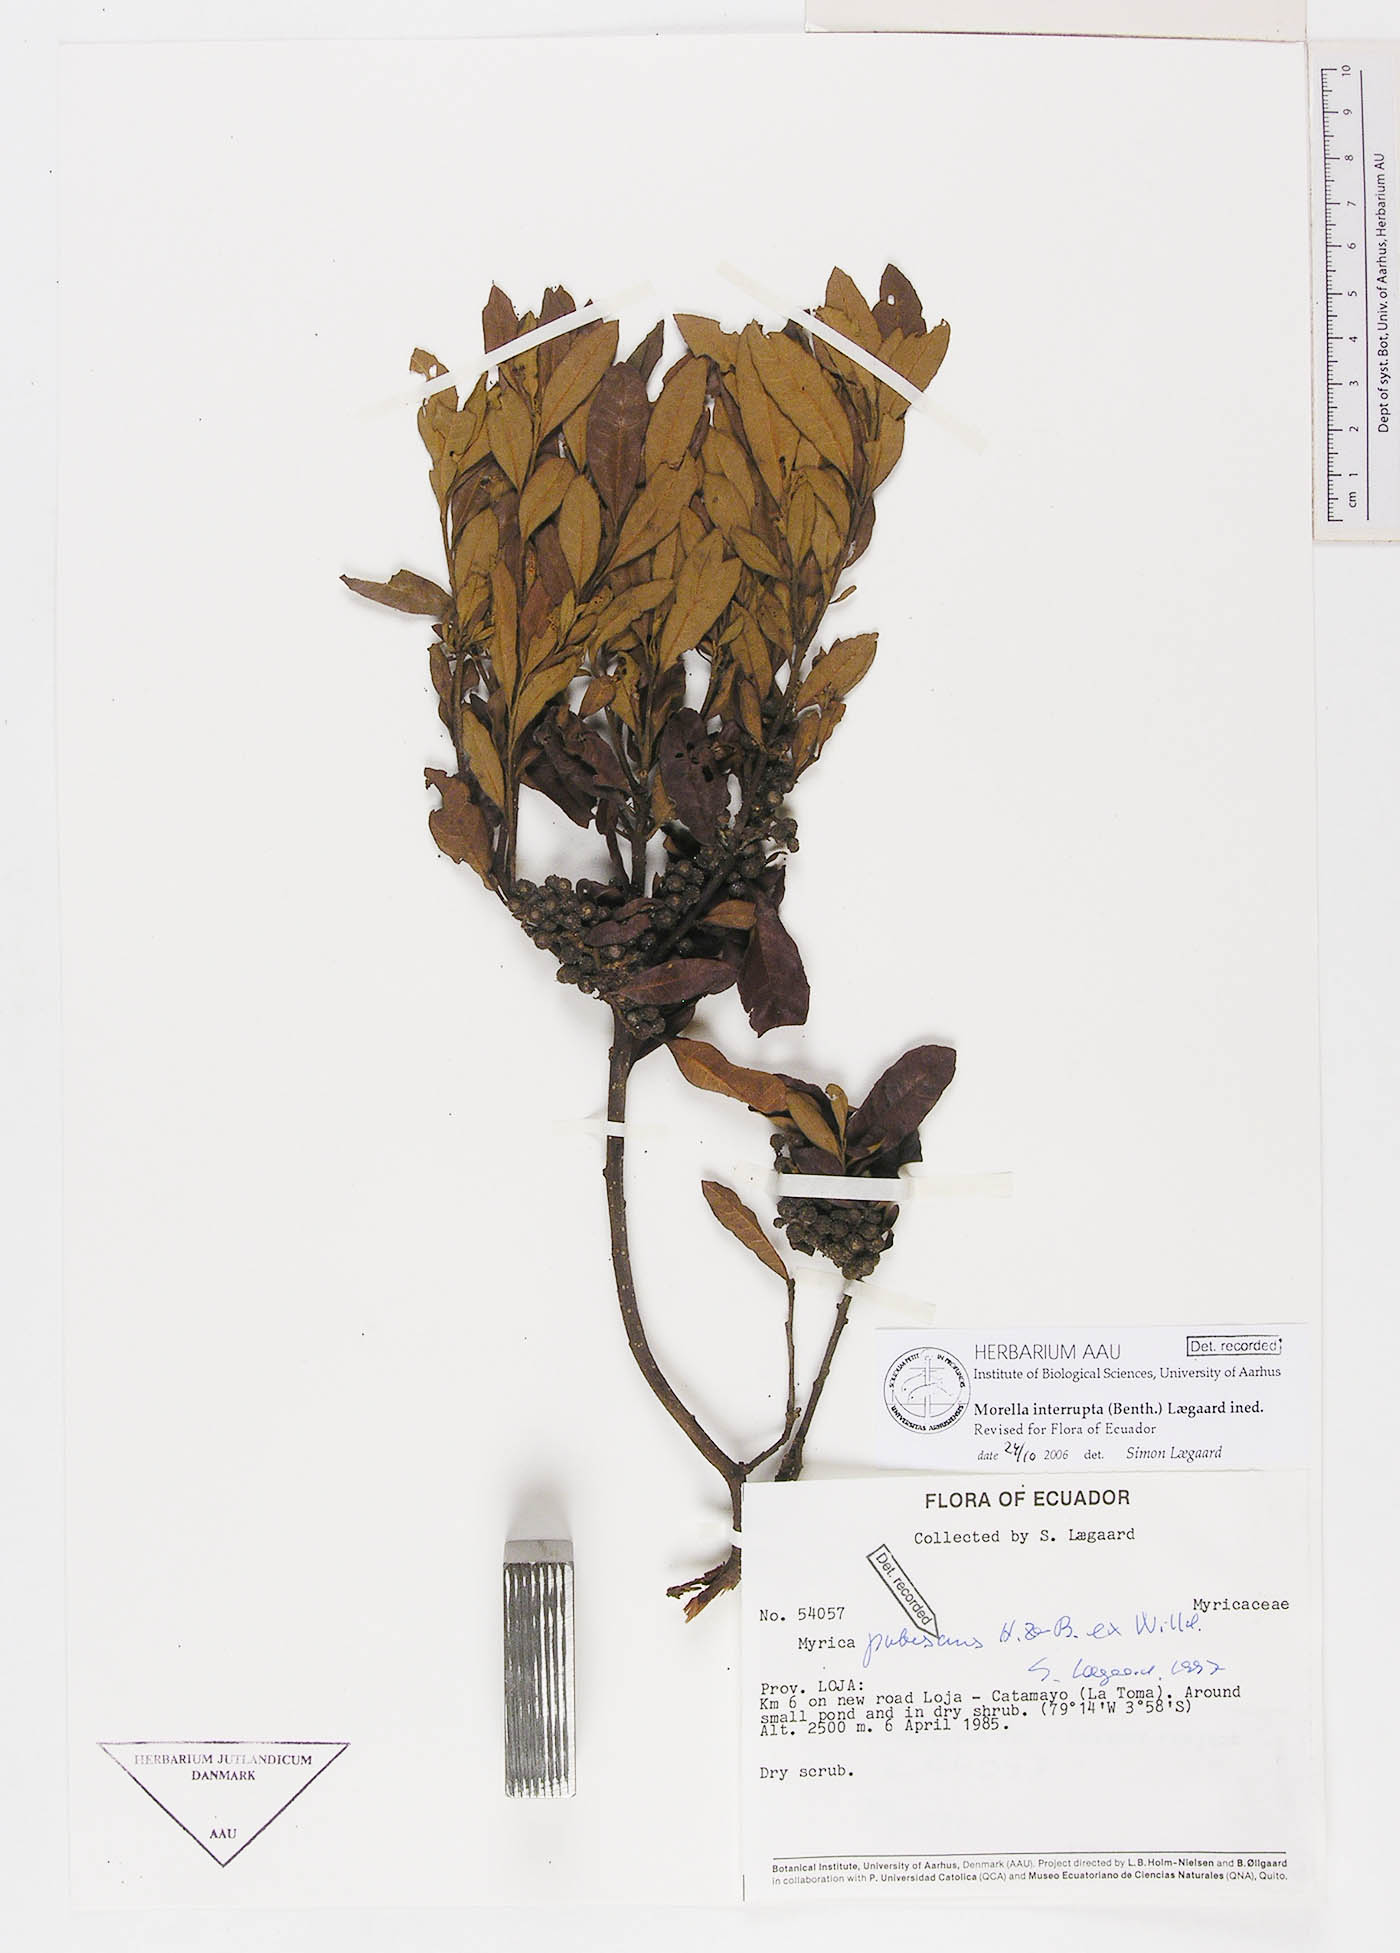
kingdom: Plantae
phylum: Tracheophyta
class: Magnoliopsida
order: Fagales
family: Myricaceae
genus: Morella
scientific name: Morella interrupta
